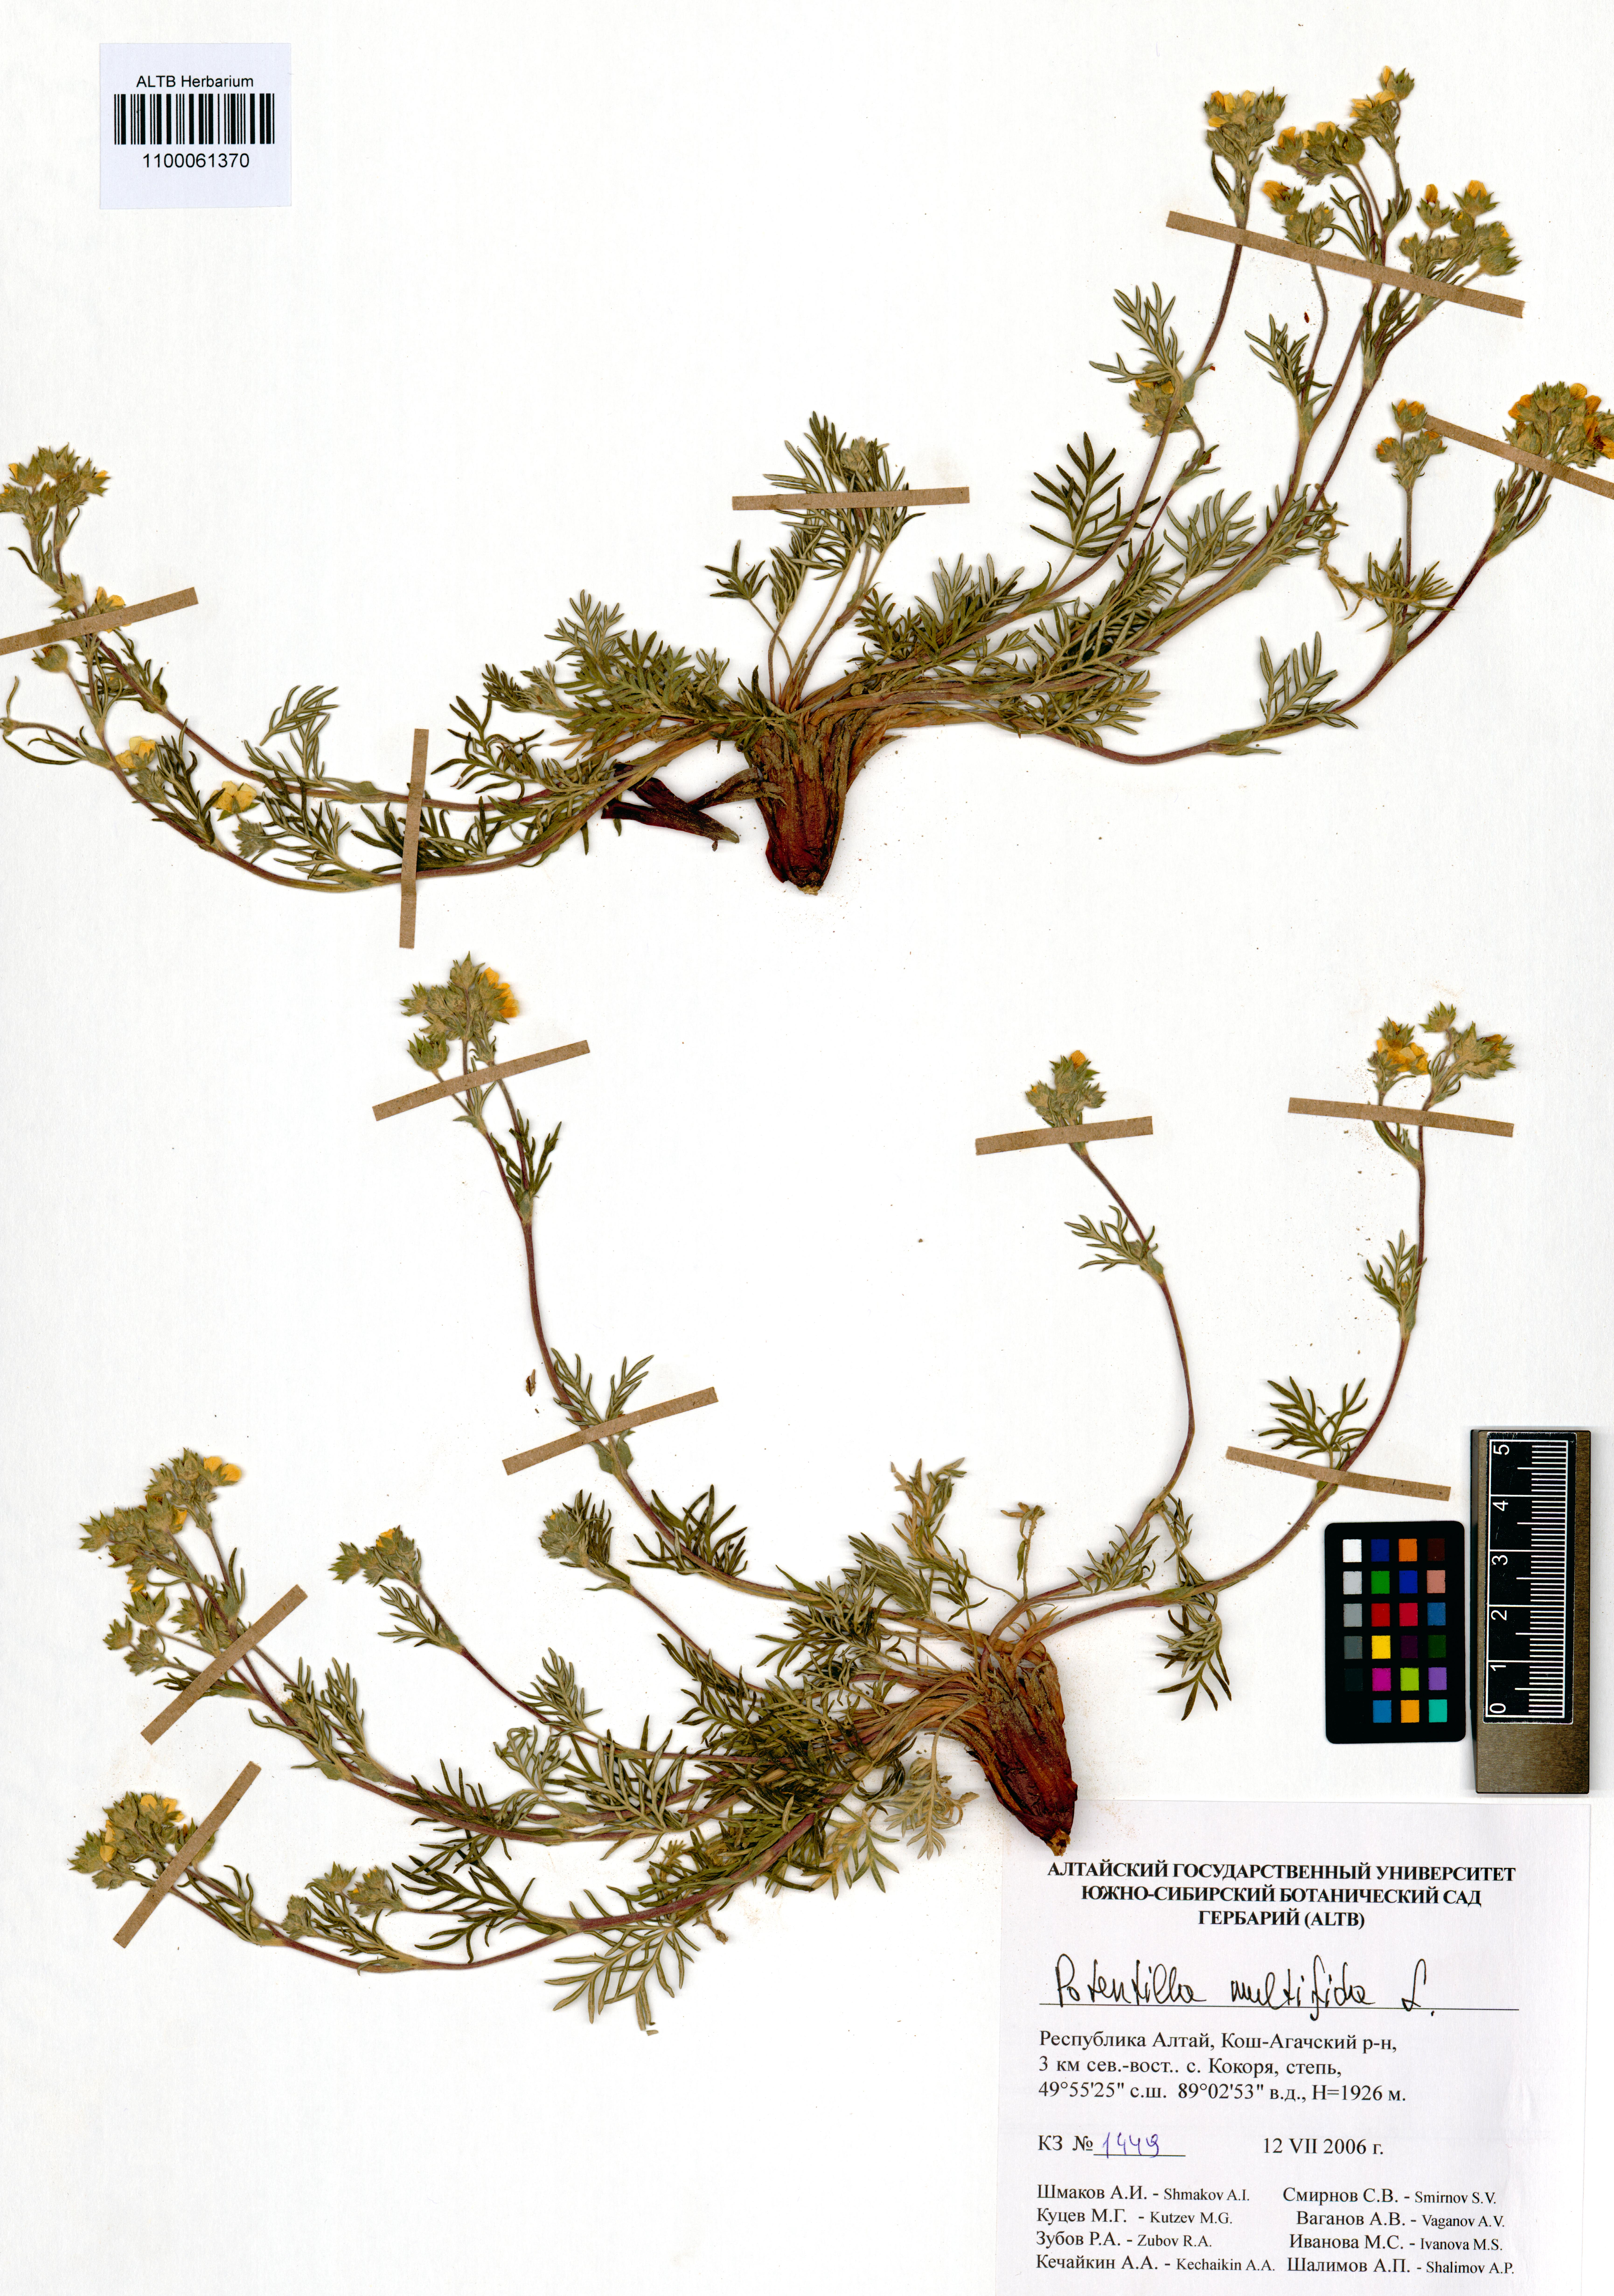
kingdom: Plantae
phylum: Tracheophyta
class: Magnoliopsida
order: Rosales
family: Rosaceae
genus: Potentilla
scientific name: Potentilla multifida
